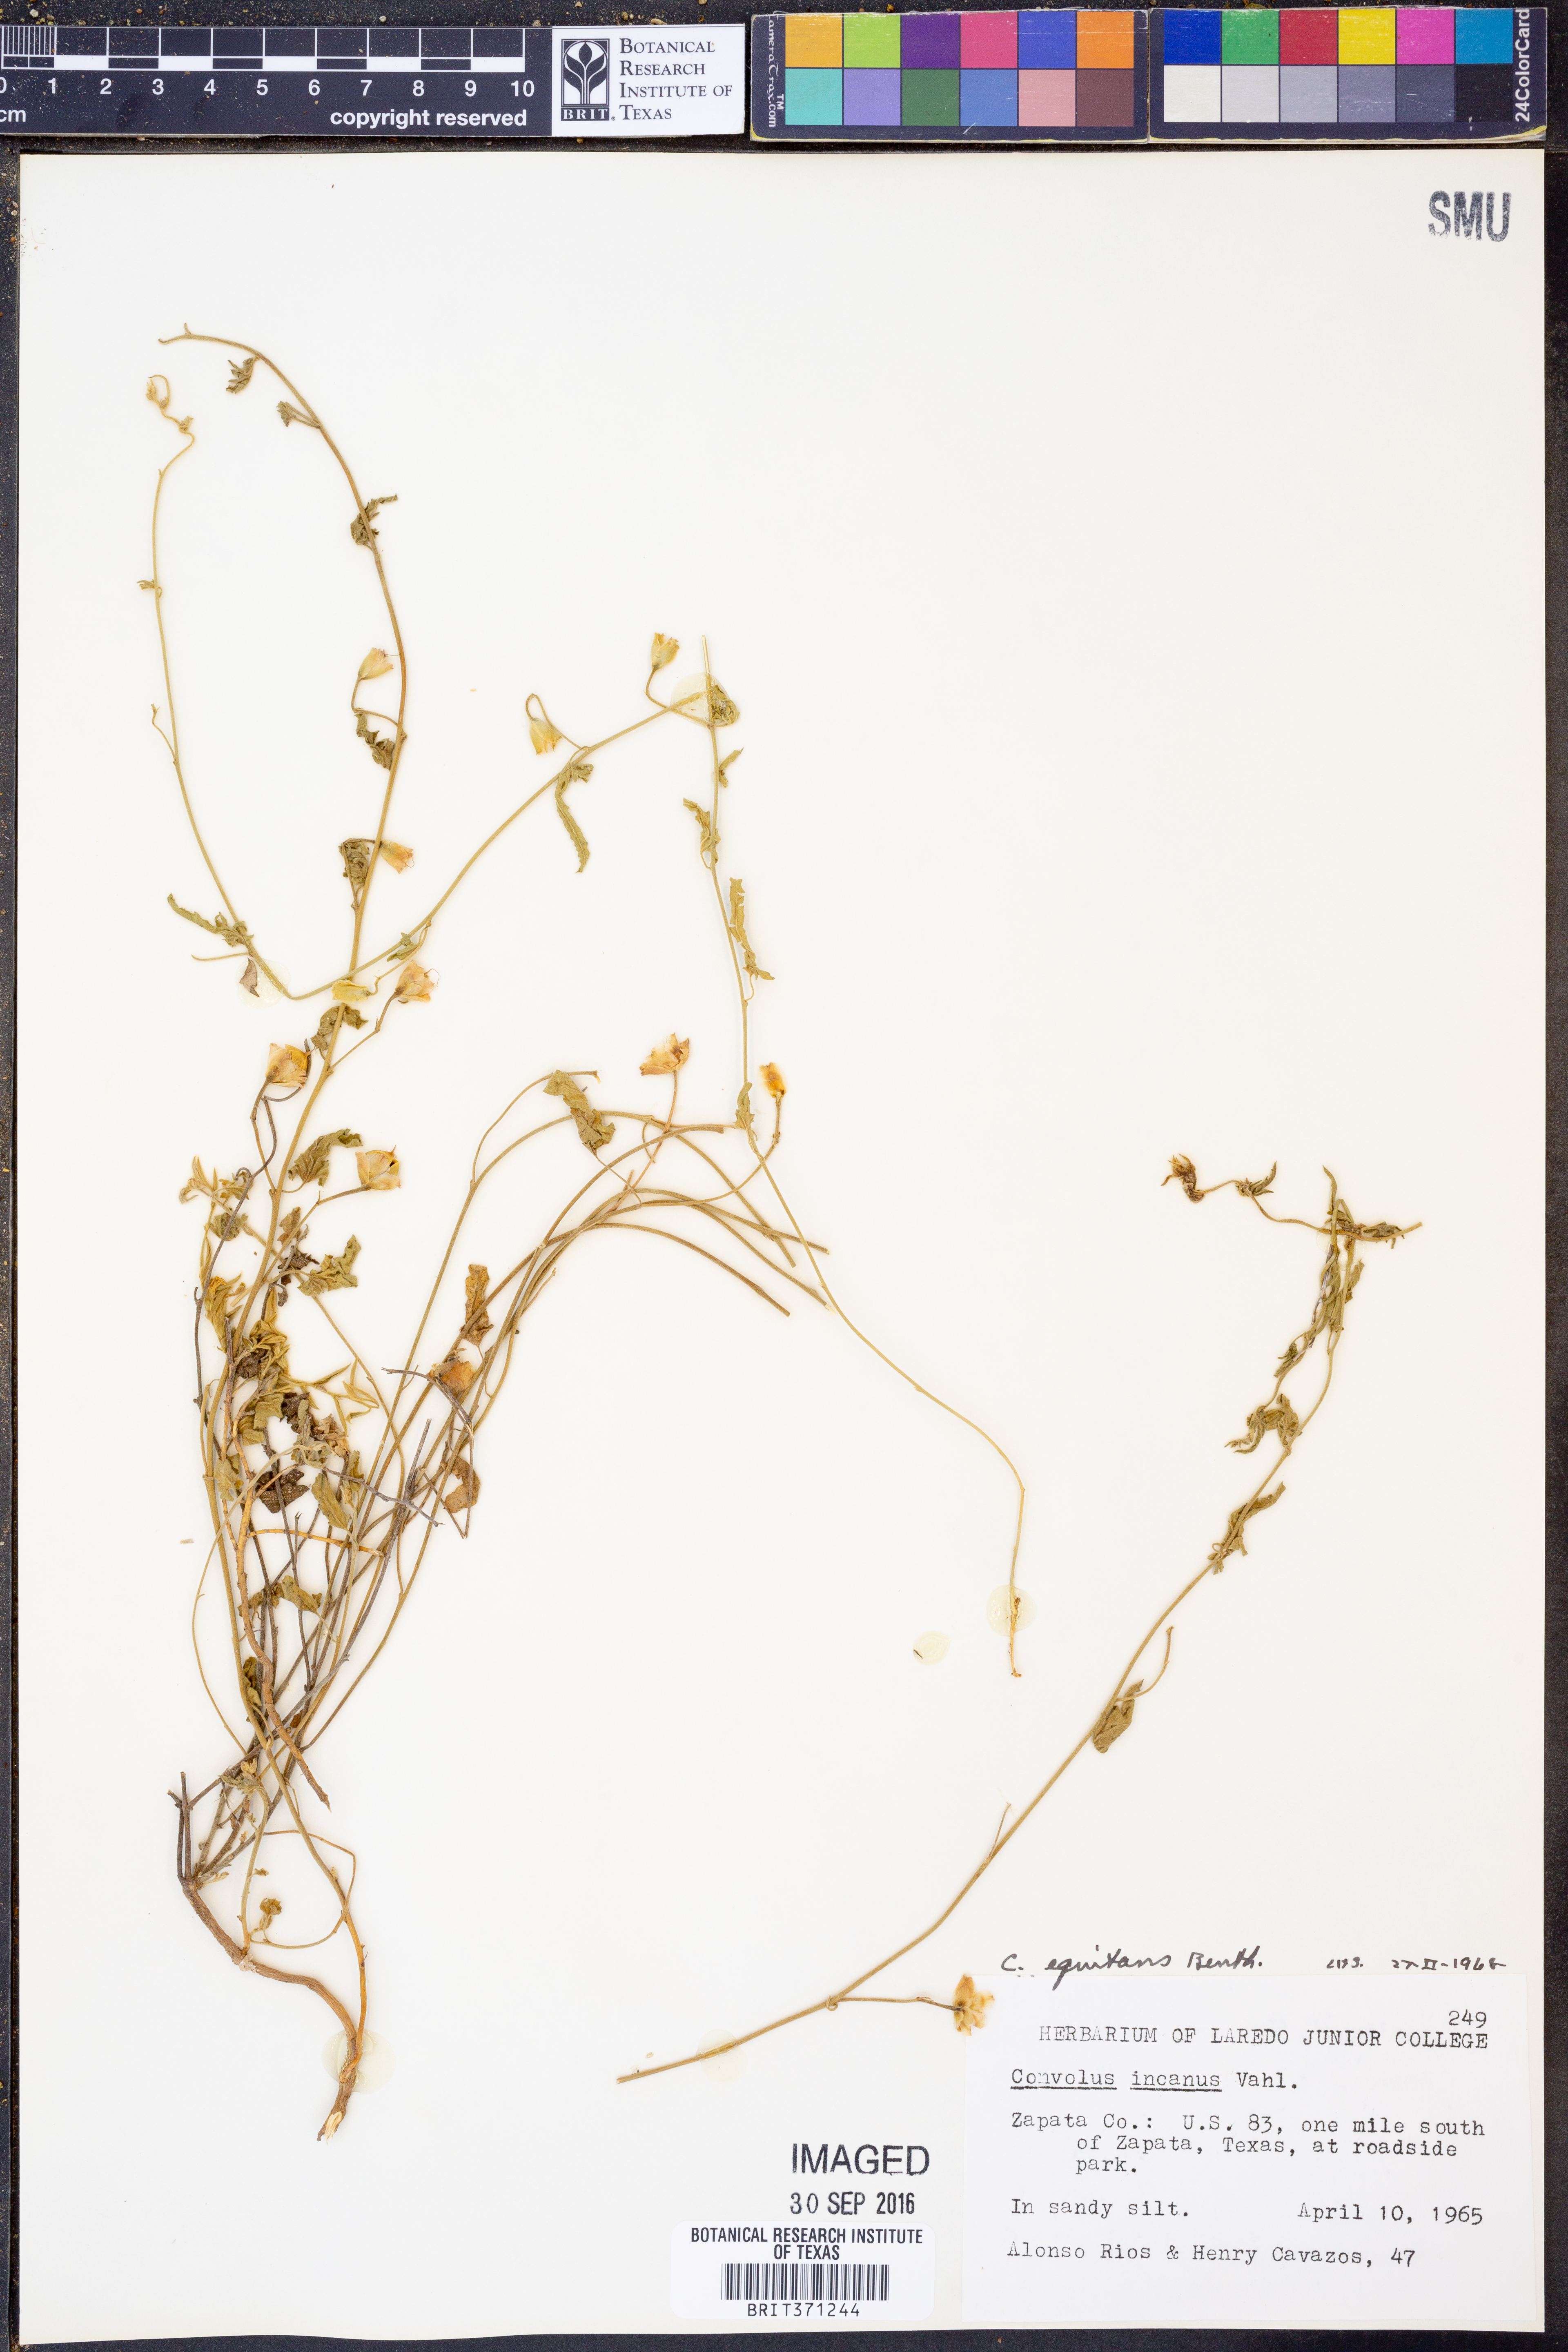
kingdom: Plantae
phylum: Tracheophyta
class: Magnoliopsida
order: Solanales
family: Convolvulaceae
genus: Convolvulus
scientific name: Convolvulus equitans
